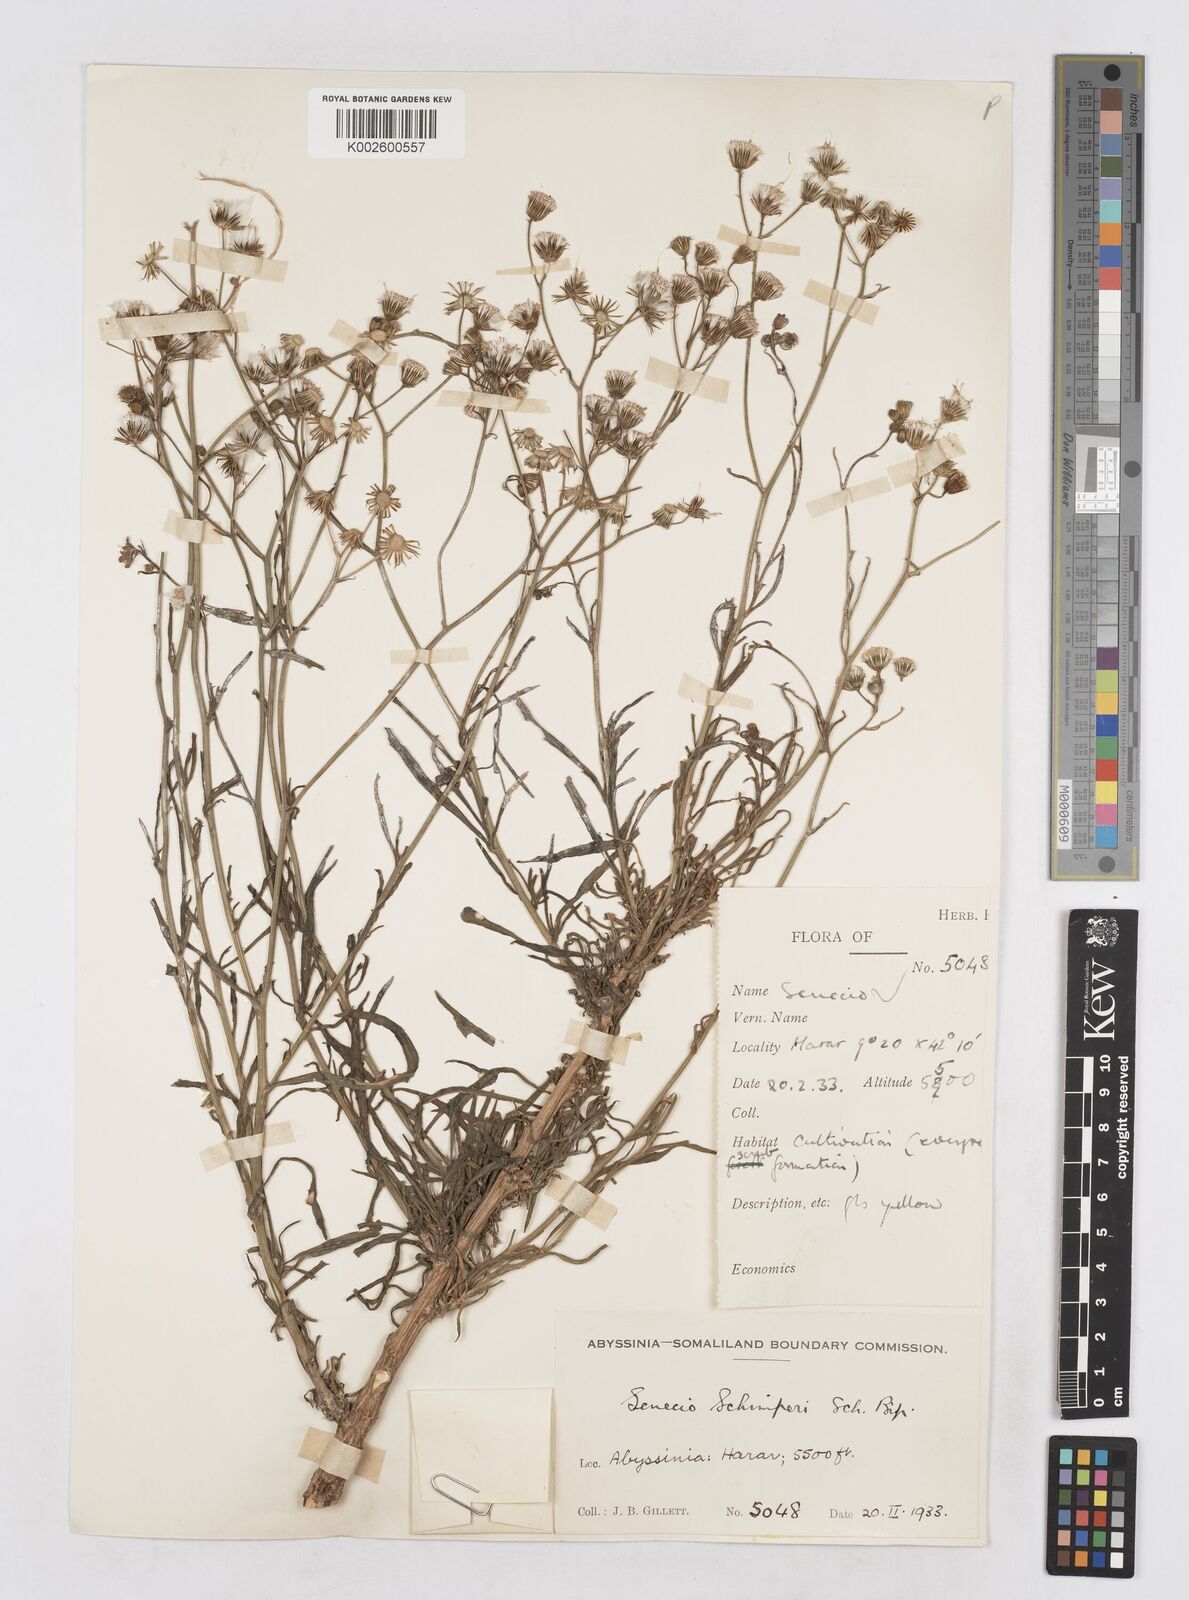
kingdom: Plantae
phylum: Tracheophyta
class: Magnoliopsida
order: Asterales
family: Asteraceae
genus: Senecio
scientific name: Senecio schimperi
